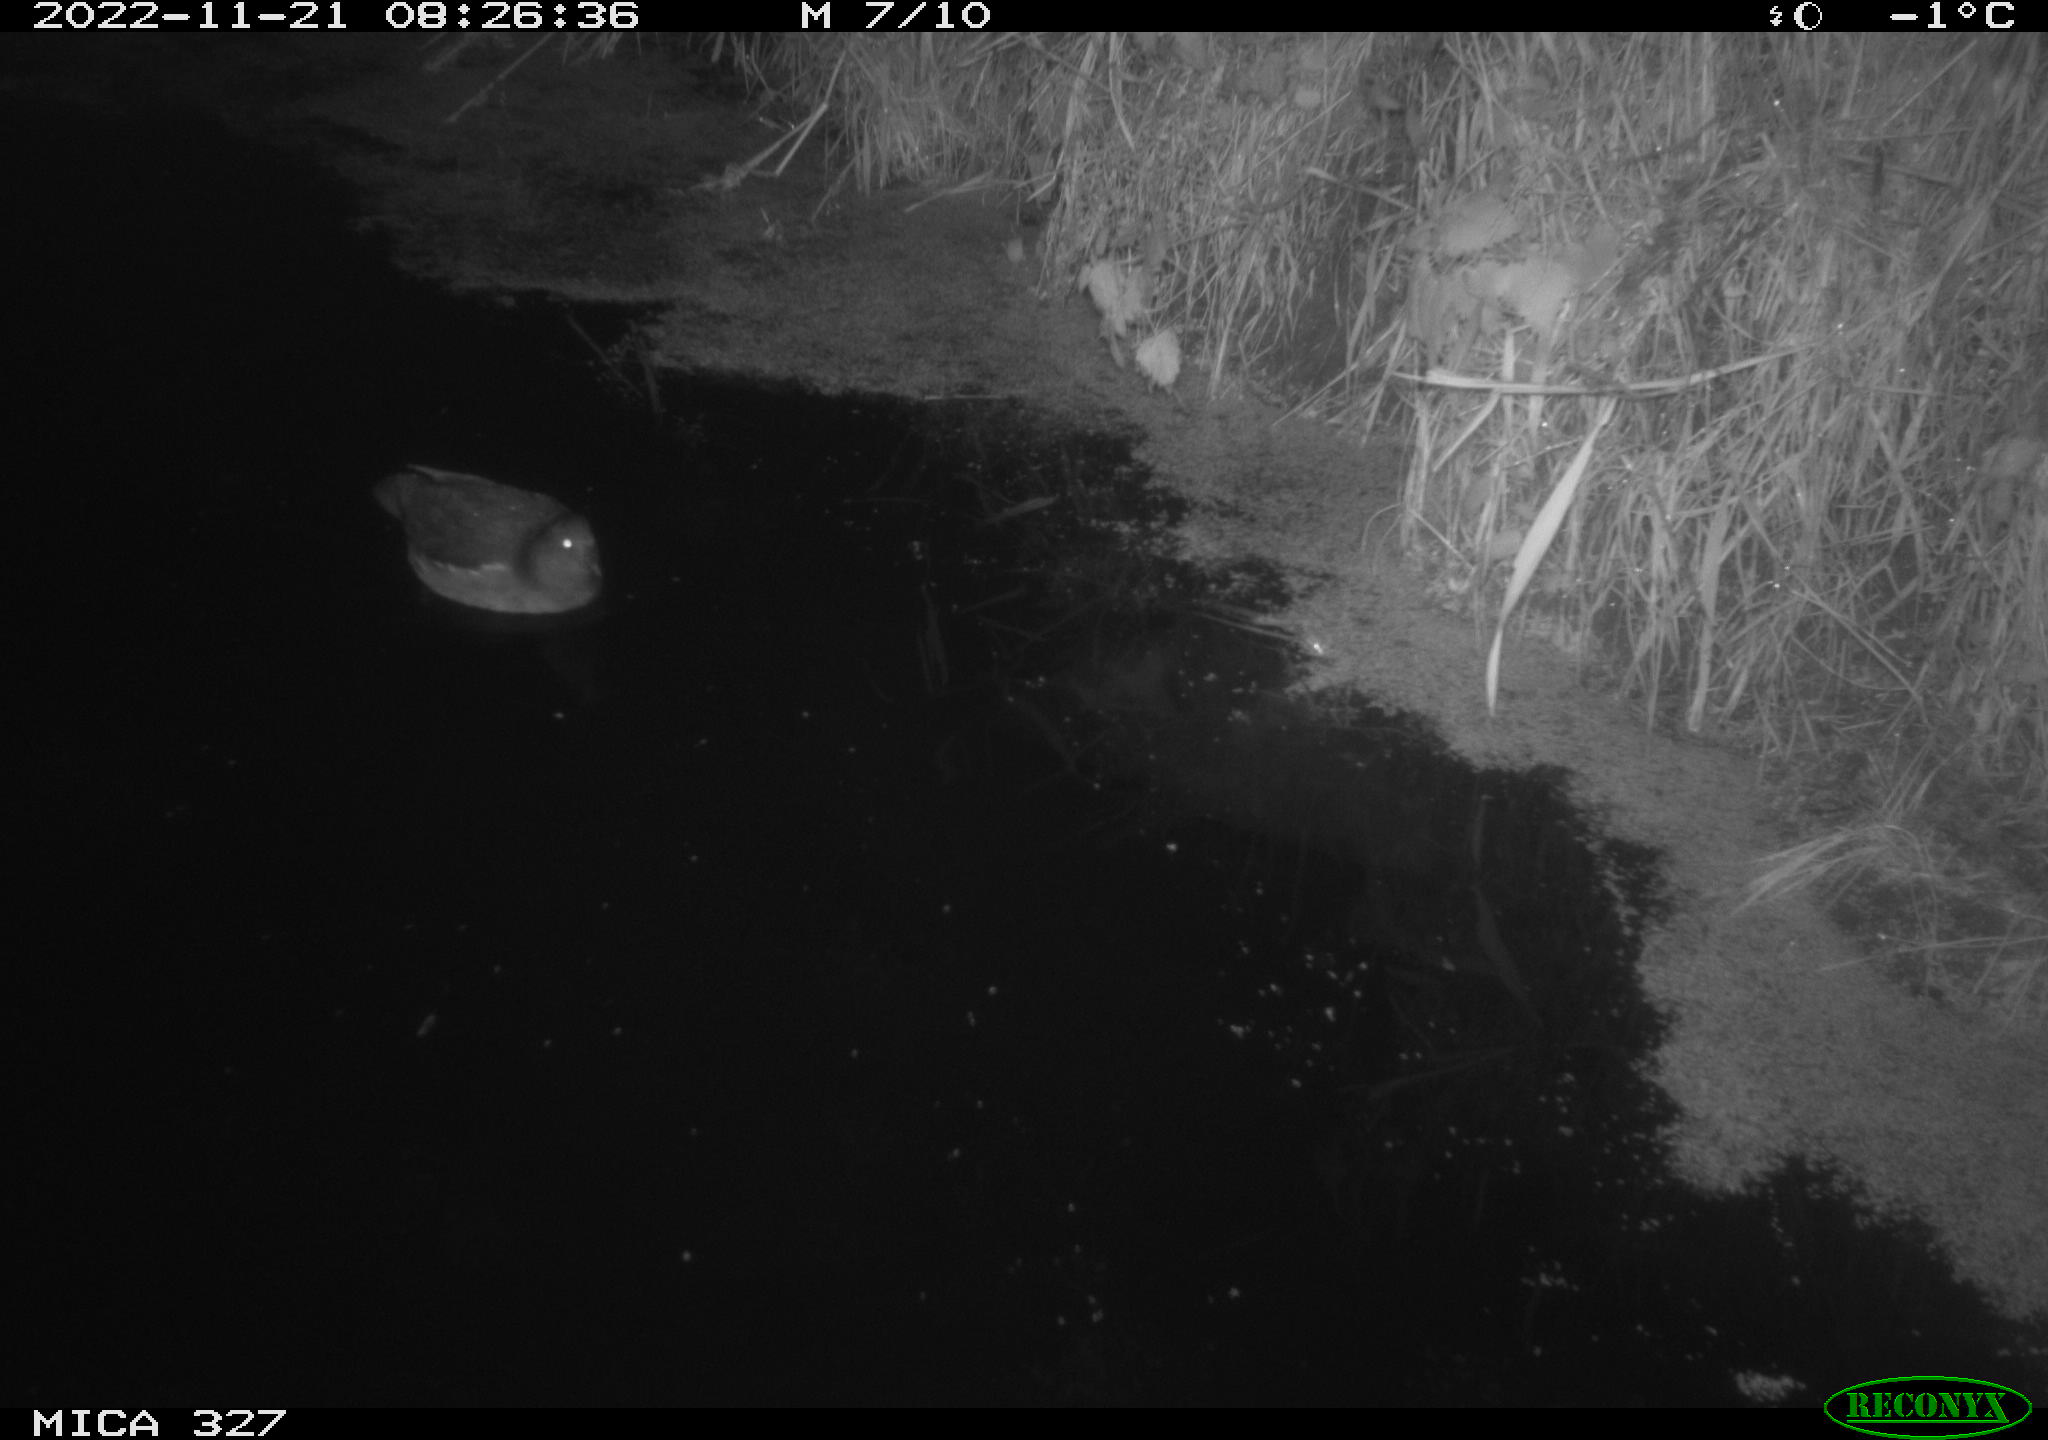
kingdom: Animalia
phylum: Chordata
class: Aves
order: Gruiformes
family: Rallidae
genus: Gallinula
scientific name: Gallinula chloropus
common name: Common moorhen
